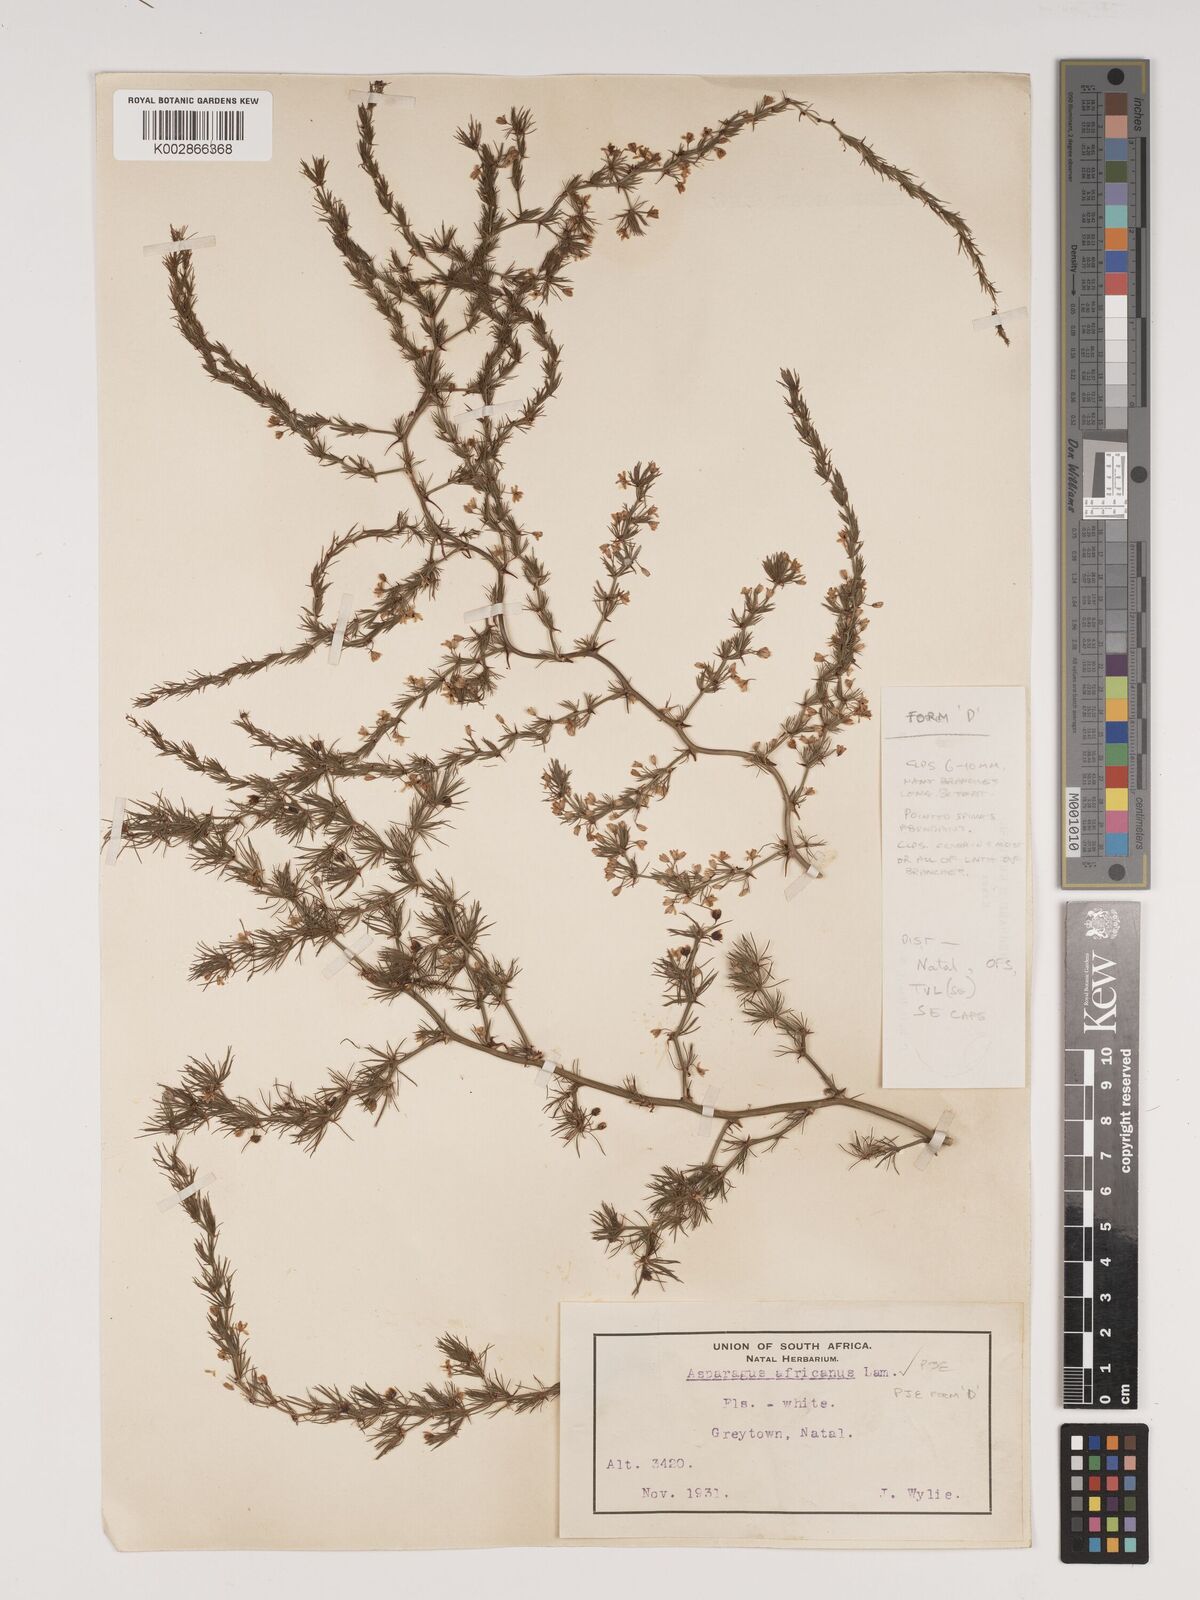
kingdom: Plantae
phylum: Tracheophyta
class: Liliopsida
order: Asparagales
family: Asparagaceae
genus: Asparagus
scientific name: Asparagus africanus
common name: Asparagus-fern
